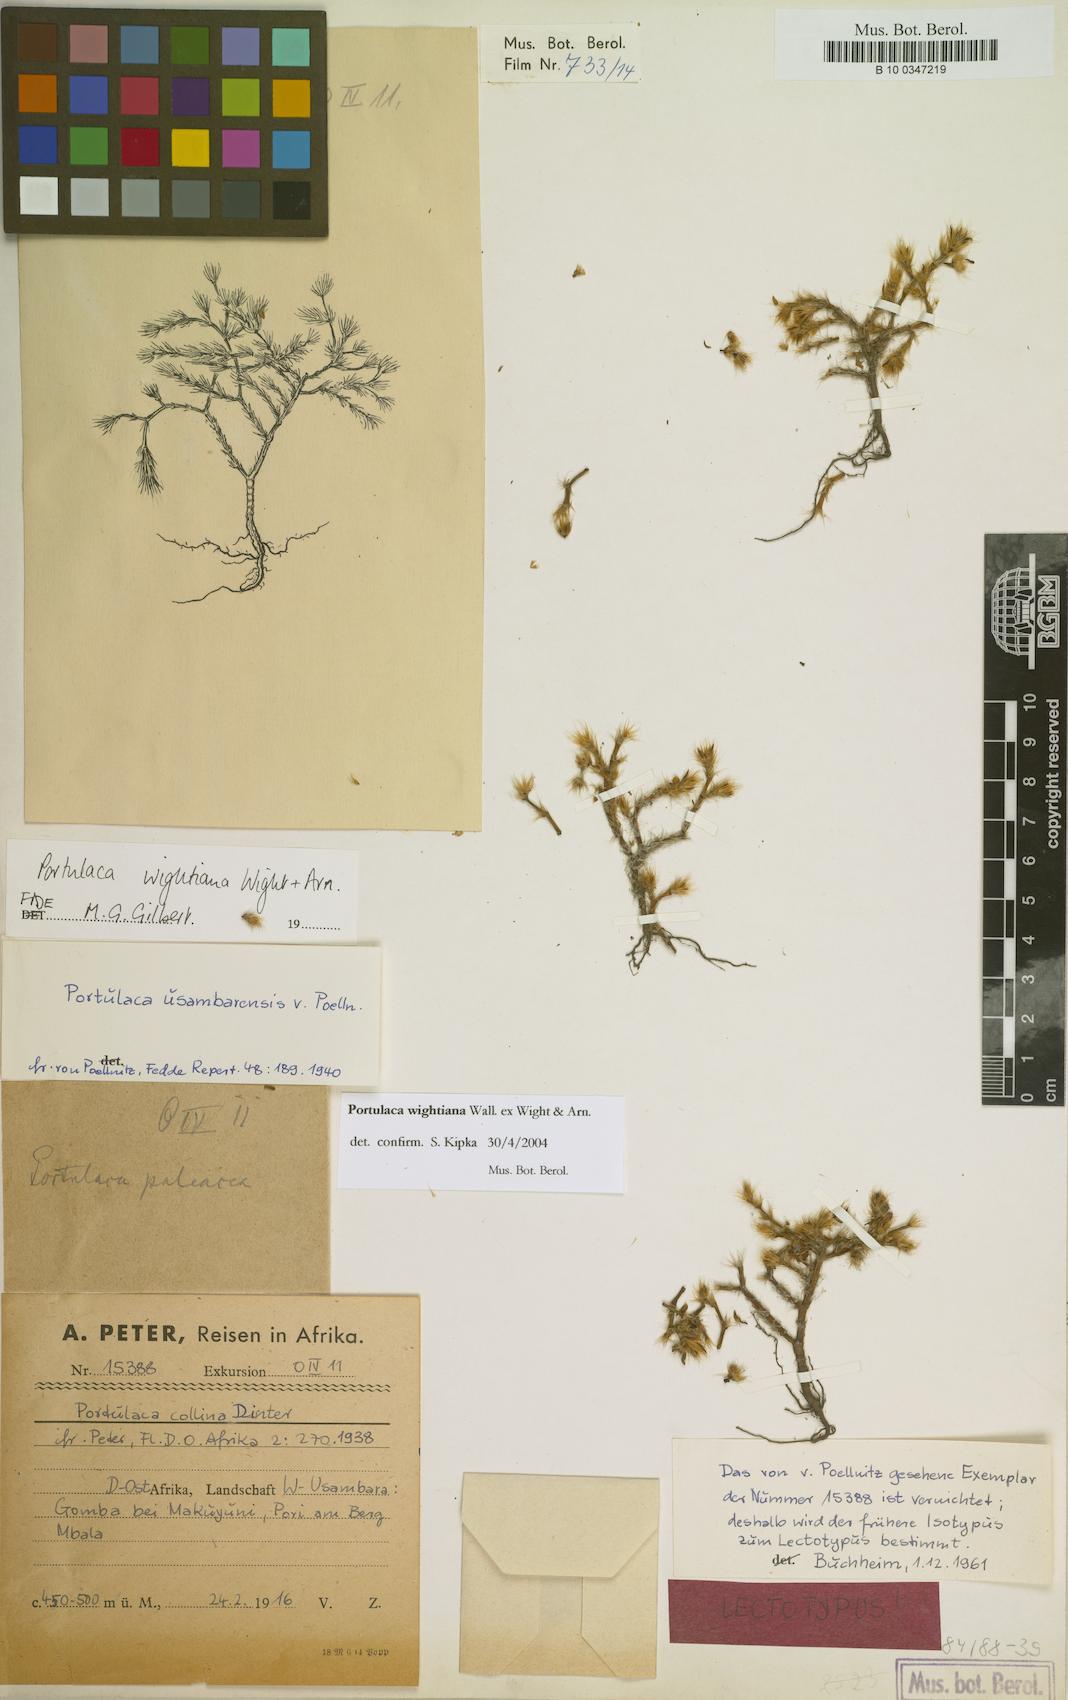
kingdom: Plantae
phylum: Tracheophyta
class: Magnoliopsida
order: Caryophyllales
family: Portulacaceae
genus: Portulaca
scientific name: Portulaca wightiana
